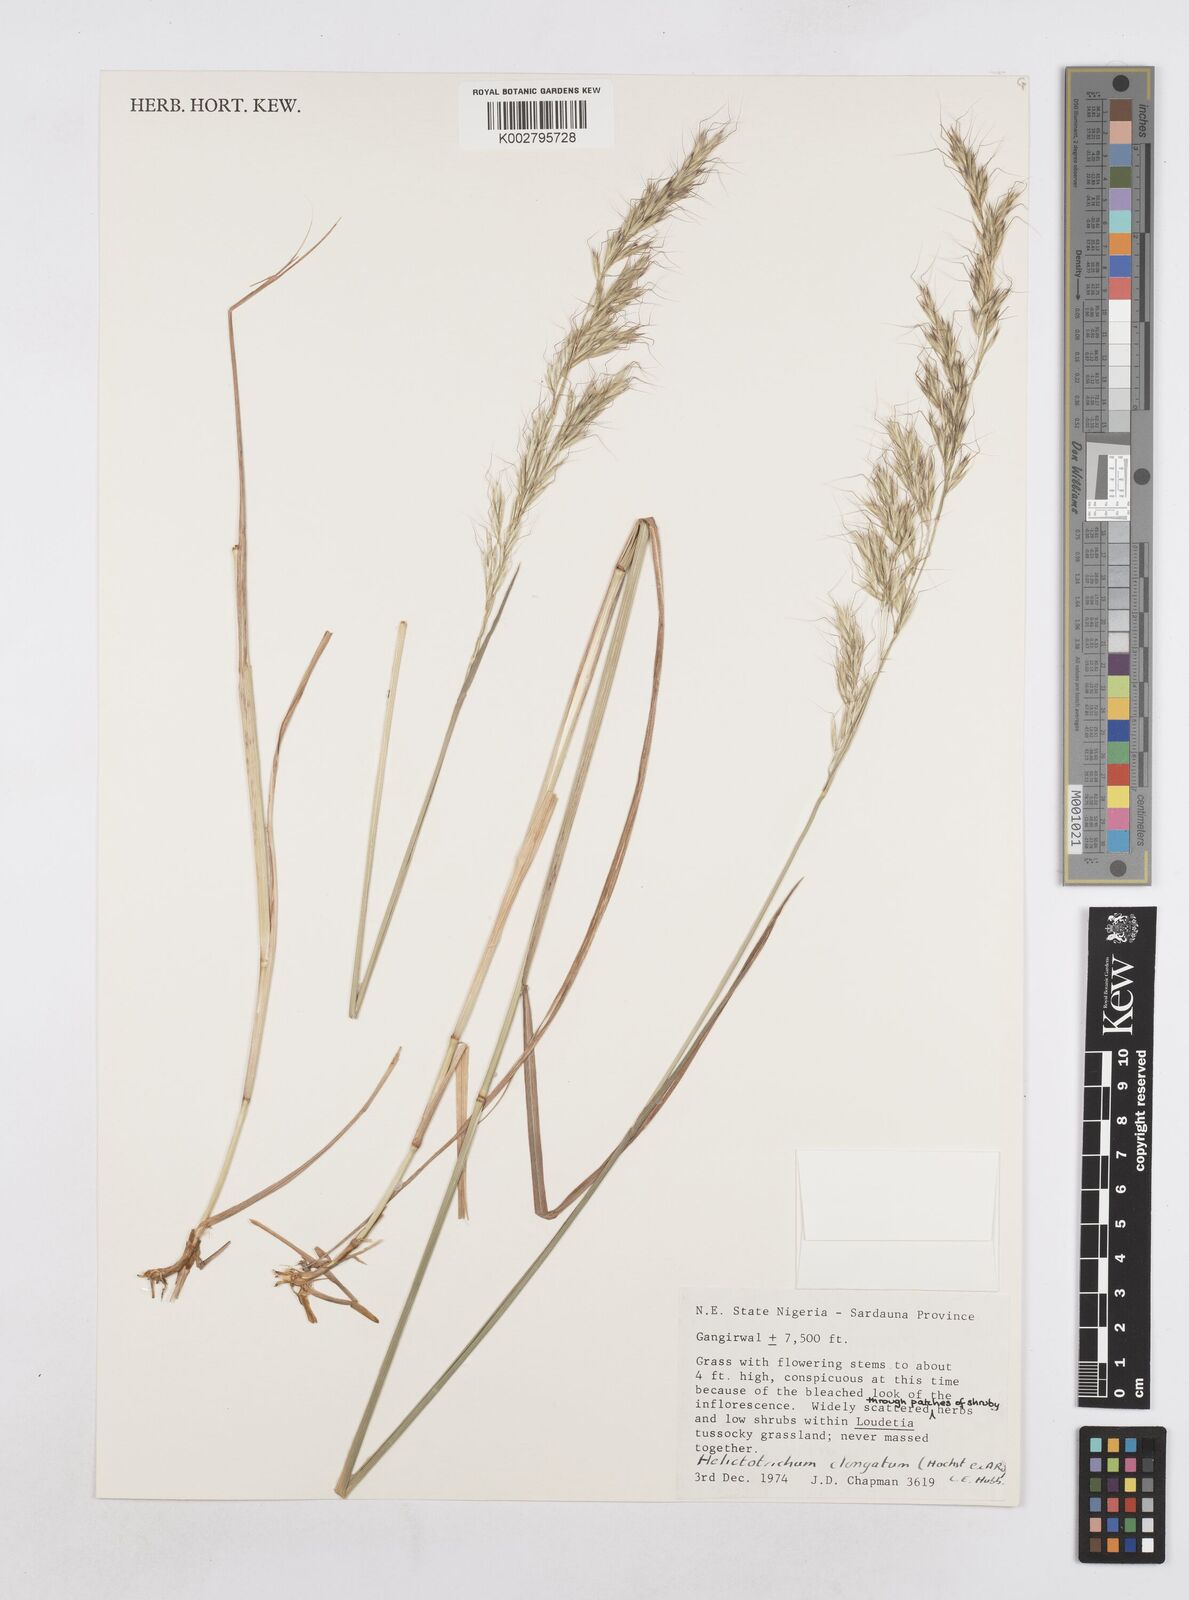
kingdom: Plantae
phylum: Tracheophyta
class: Liliopsida
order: Poales
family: Poaceae
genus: Trisetopsis
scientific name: Trisetopsis elongata
